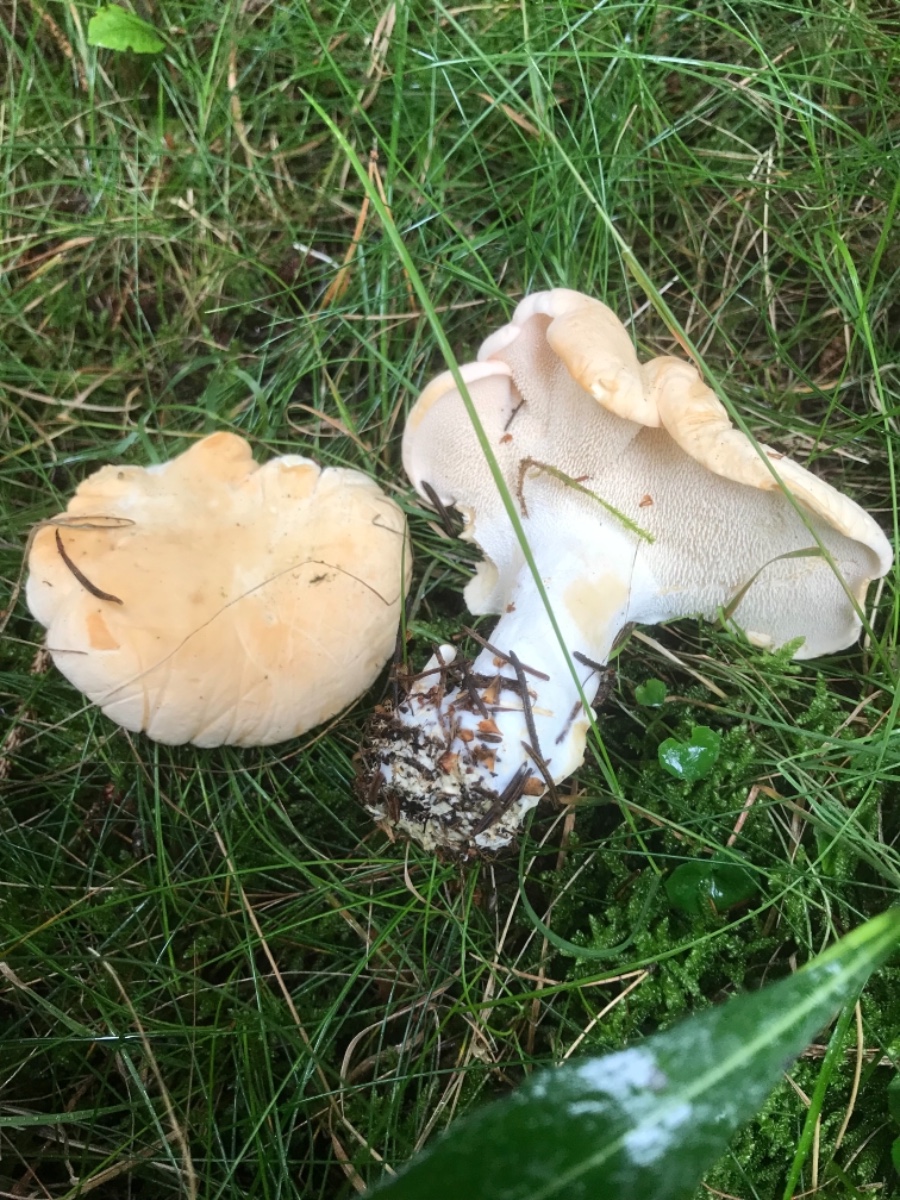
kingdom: Fungi
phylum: Basidiomycota
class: Agaricomycetes
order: Cantharellales
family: Hydnaceae
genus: Hydnum
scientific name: Hydnum repandum
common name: almindelig pigsvamp
